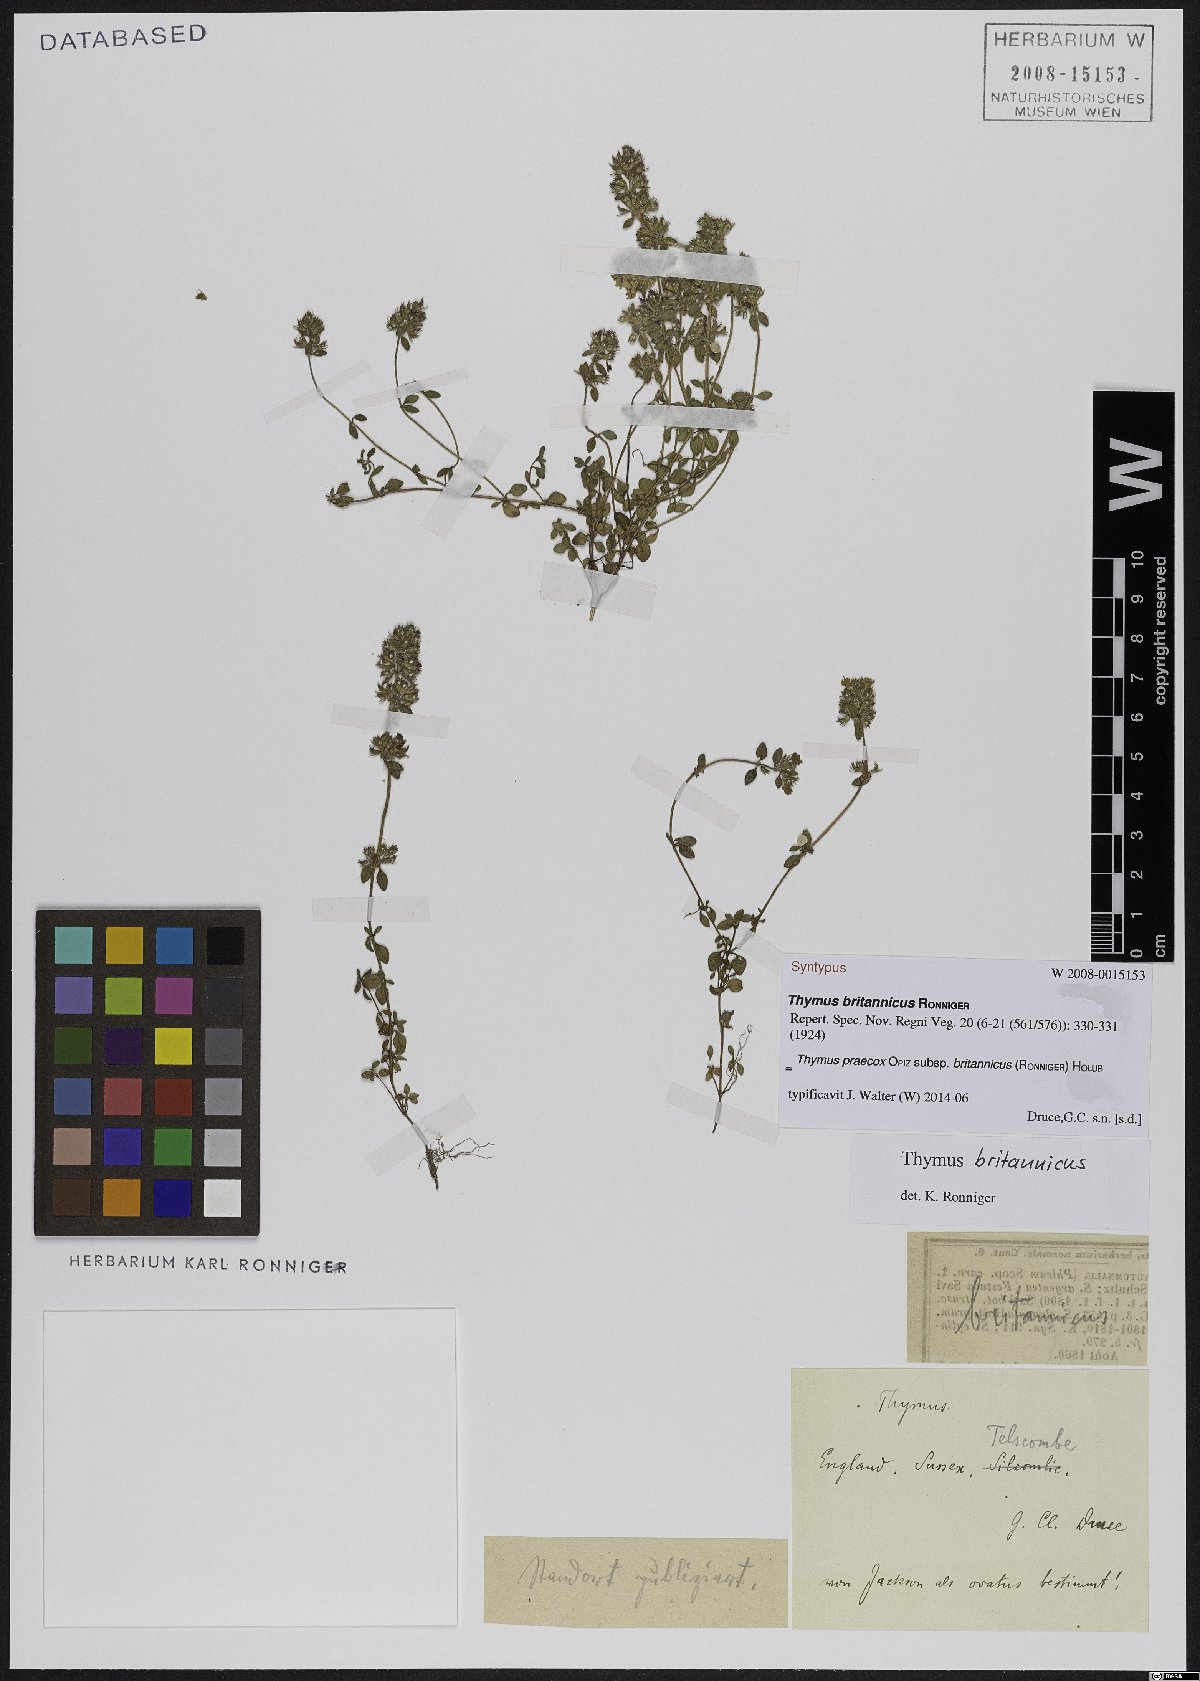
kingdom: Plantae
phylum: Tracheophyta
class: Magnoliopsida
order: Lamiales
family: Lamiaceae
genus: Thymus
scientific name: Thymus praecox
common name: Wild thyme
